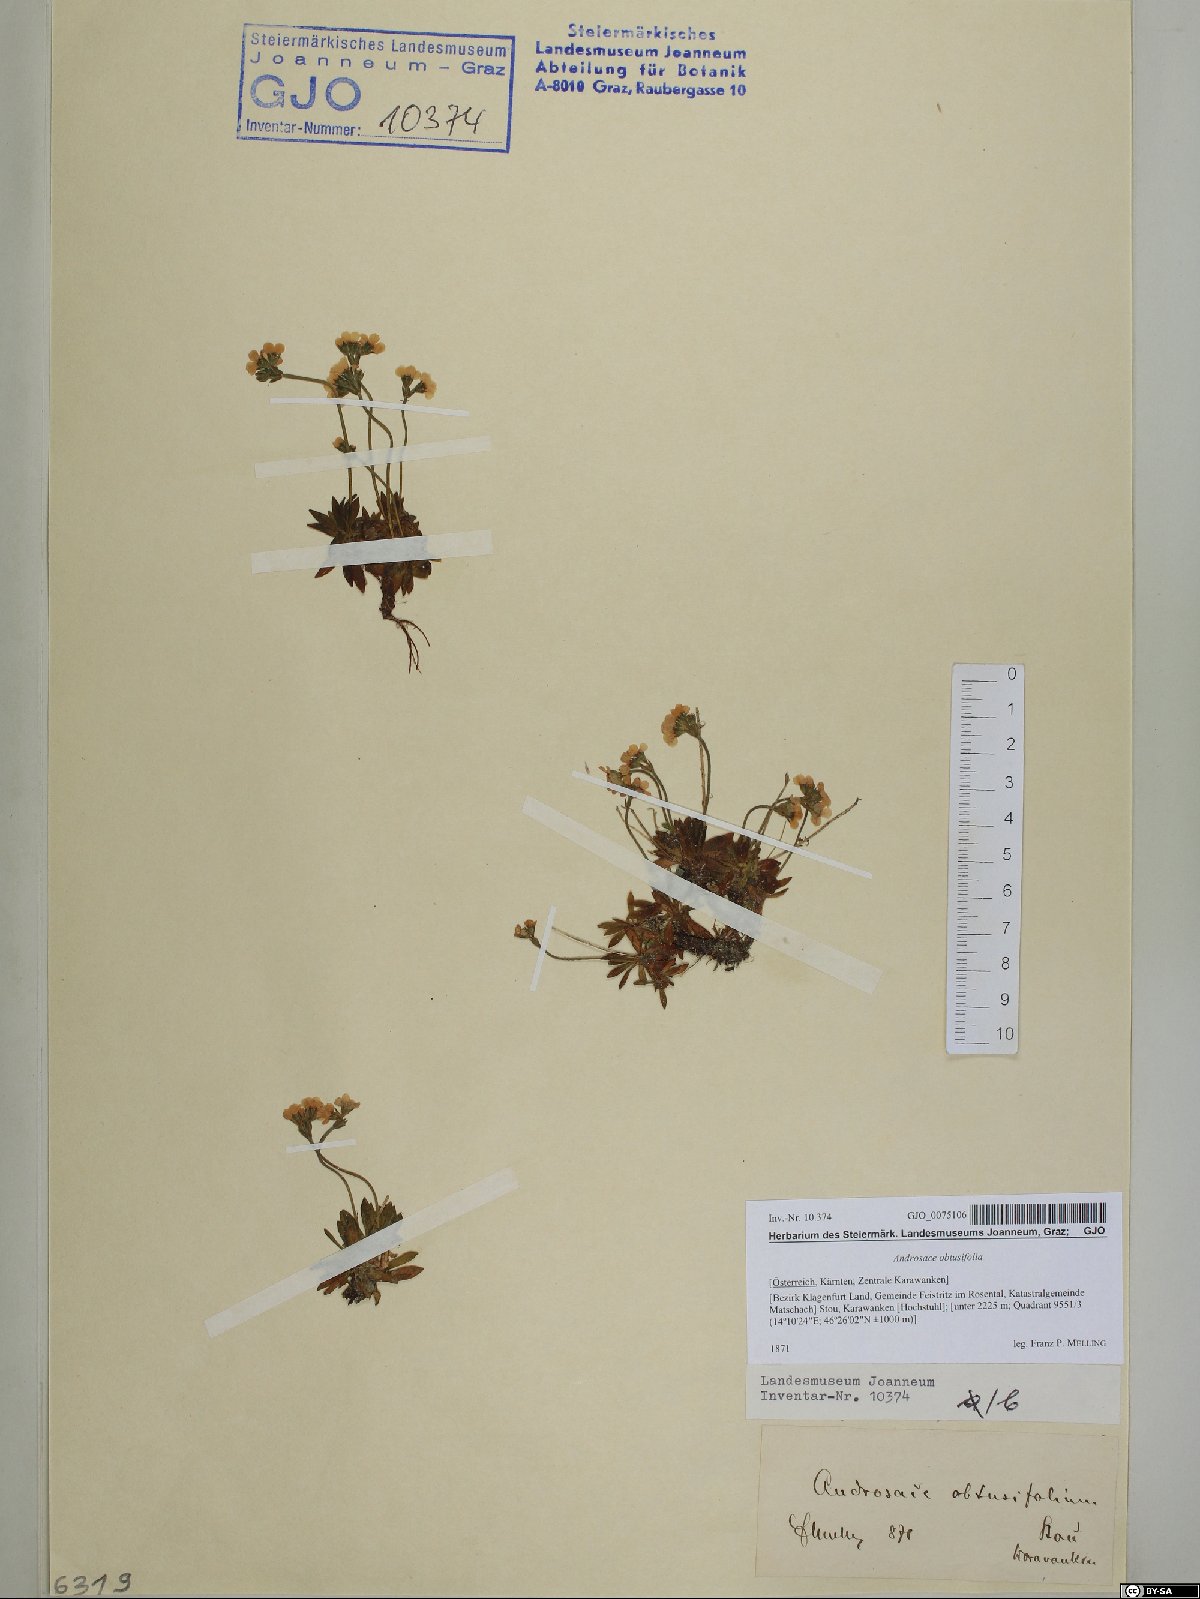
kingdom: Plantae
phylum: Tracheophyta
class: Magnoliopsida
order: Ericales
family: Primulaceae
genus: Androsace
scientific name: Androsace obtusifolia
